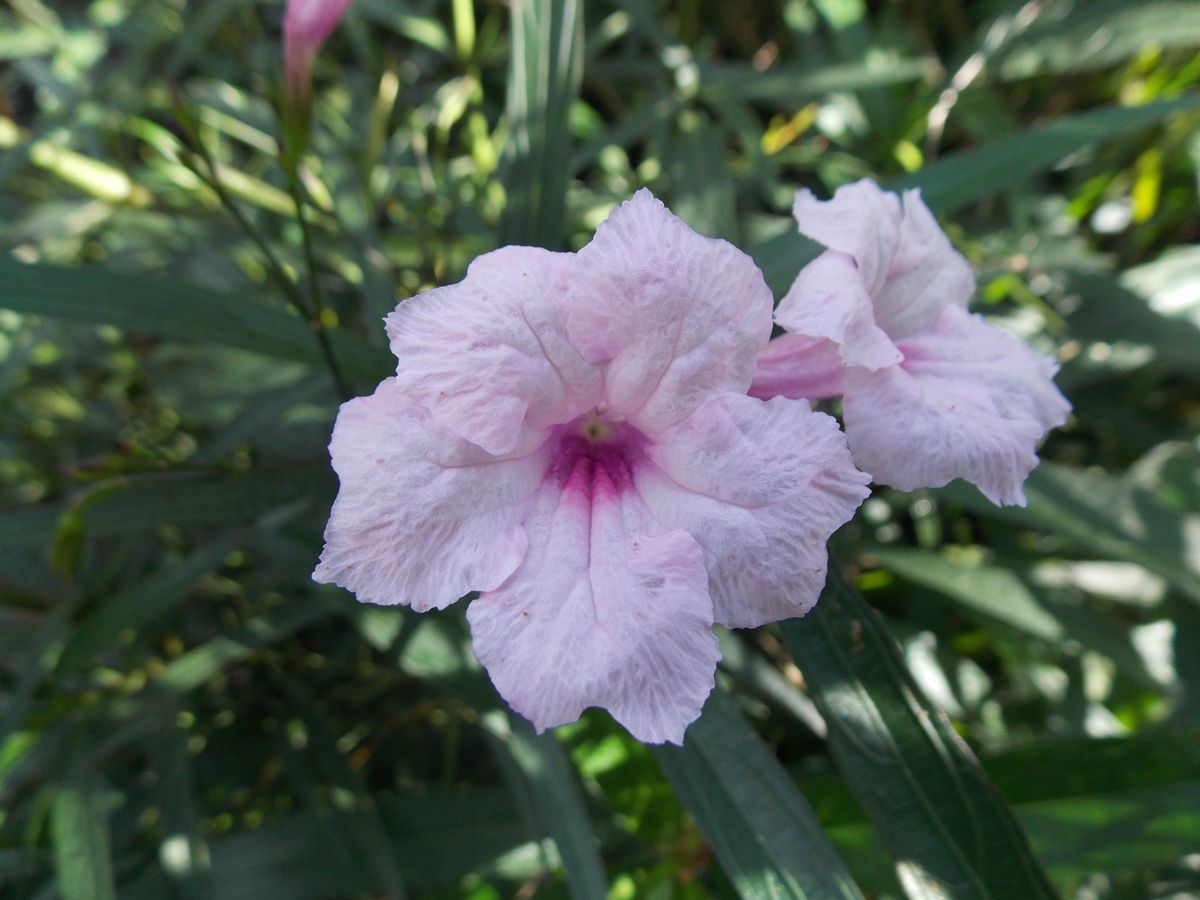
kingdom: Plantae
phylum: Tracheophyta
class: Magnoliopsida
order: Lamiales
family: Acanthaceae
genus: Ruellia
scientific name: Ruellia simplex
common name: Softseed wild petunia
